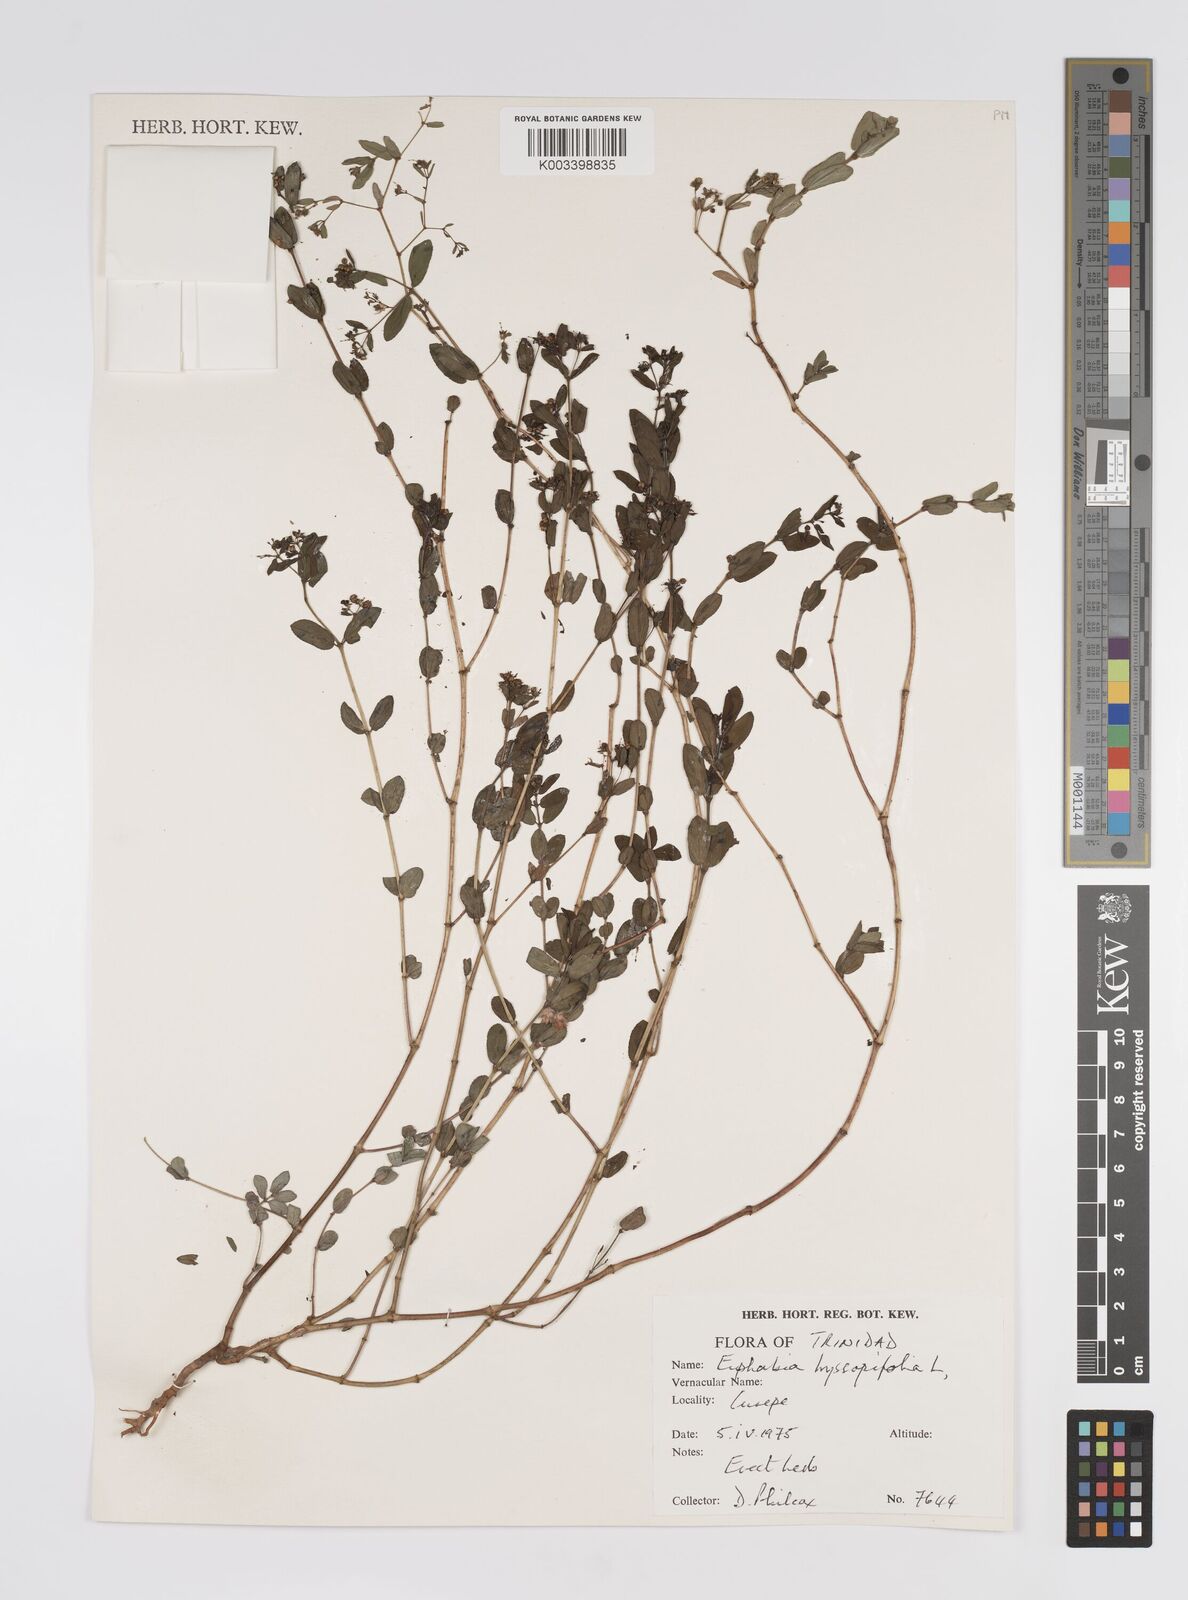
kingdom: Plantae
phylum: Tracheophyta
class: Magnoliopsida
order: Malpighiales
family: Euphorbiaceae
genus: Euphorbia
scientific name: Euphorbia hyssopifolia
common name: Hyssopleaf sandmat
